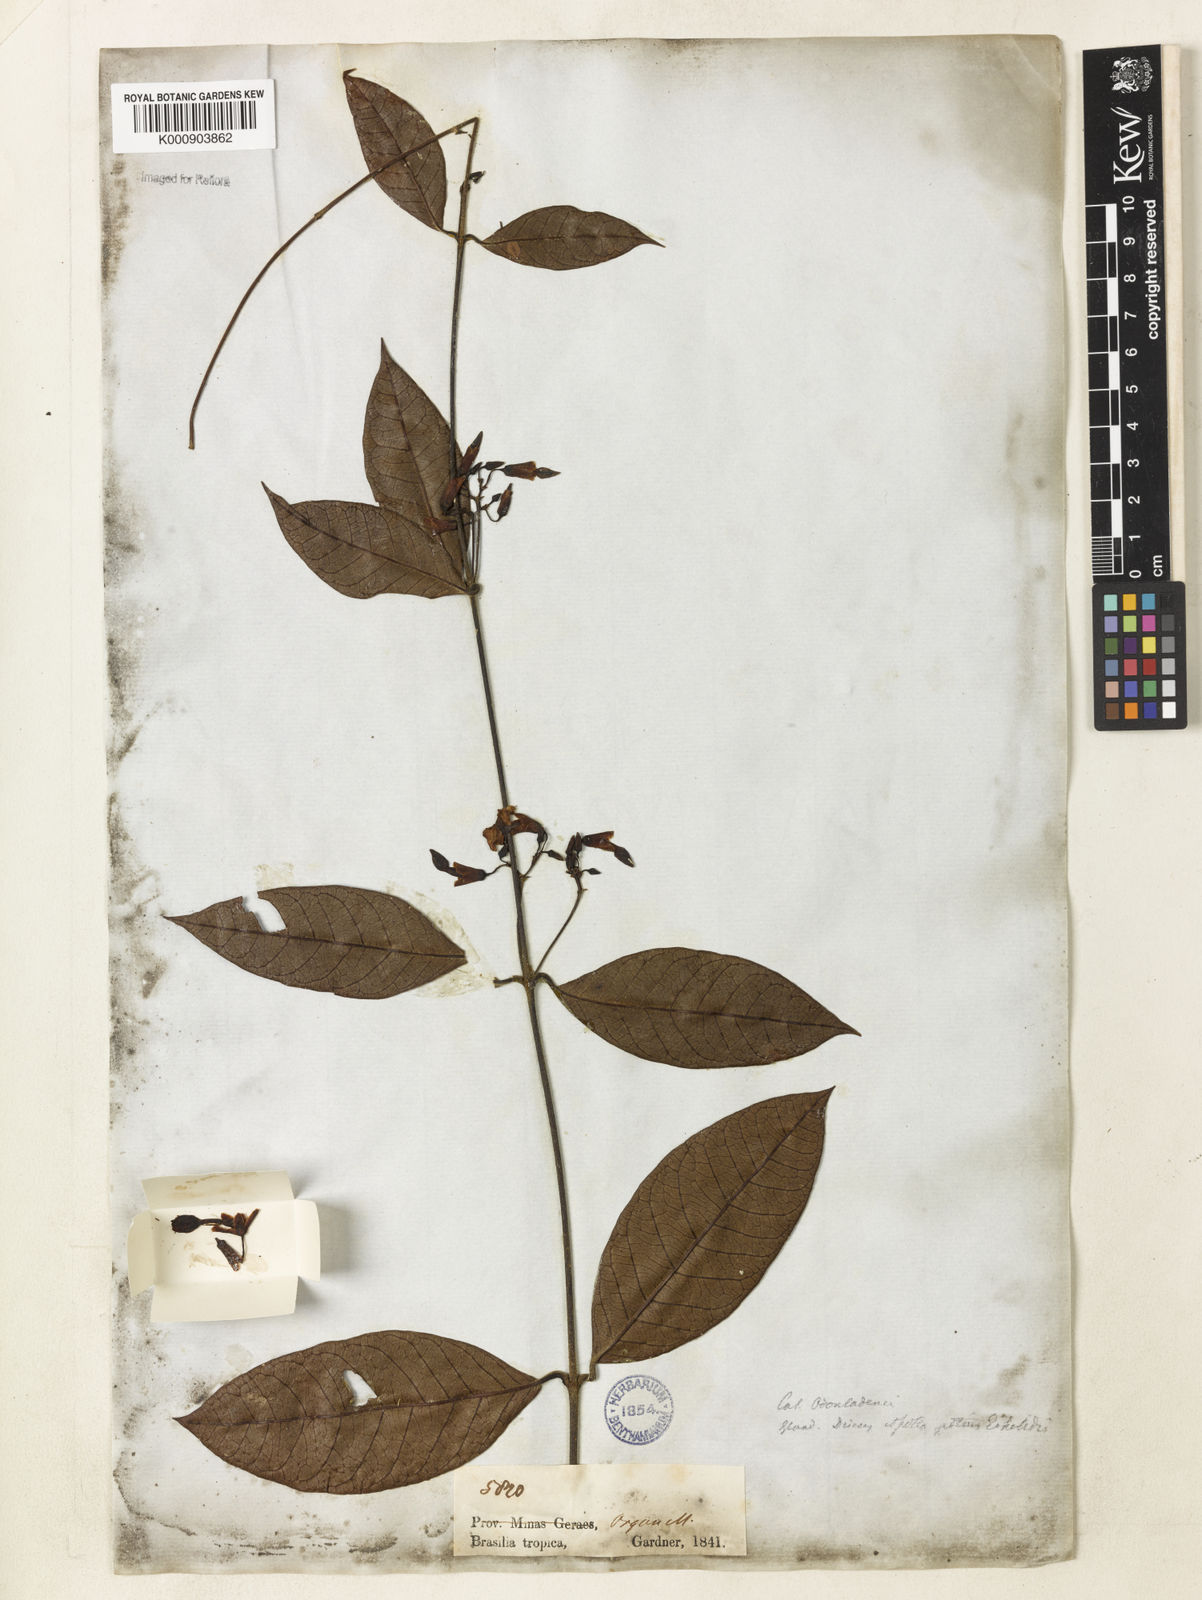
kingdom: Plantae
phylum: Tracheophyta
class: Magnoliopsida
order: Gentianales
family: Apocynaceae
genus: Odontadenia
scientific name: Odontadenia gracilipes
